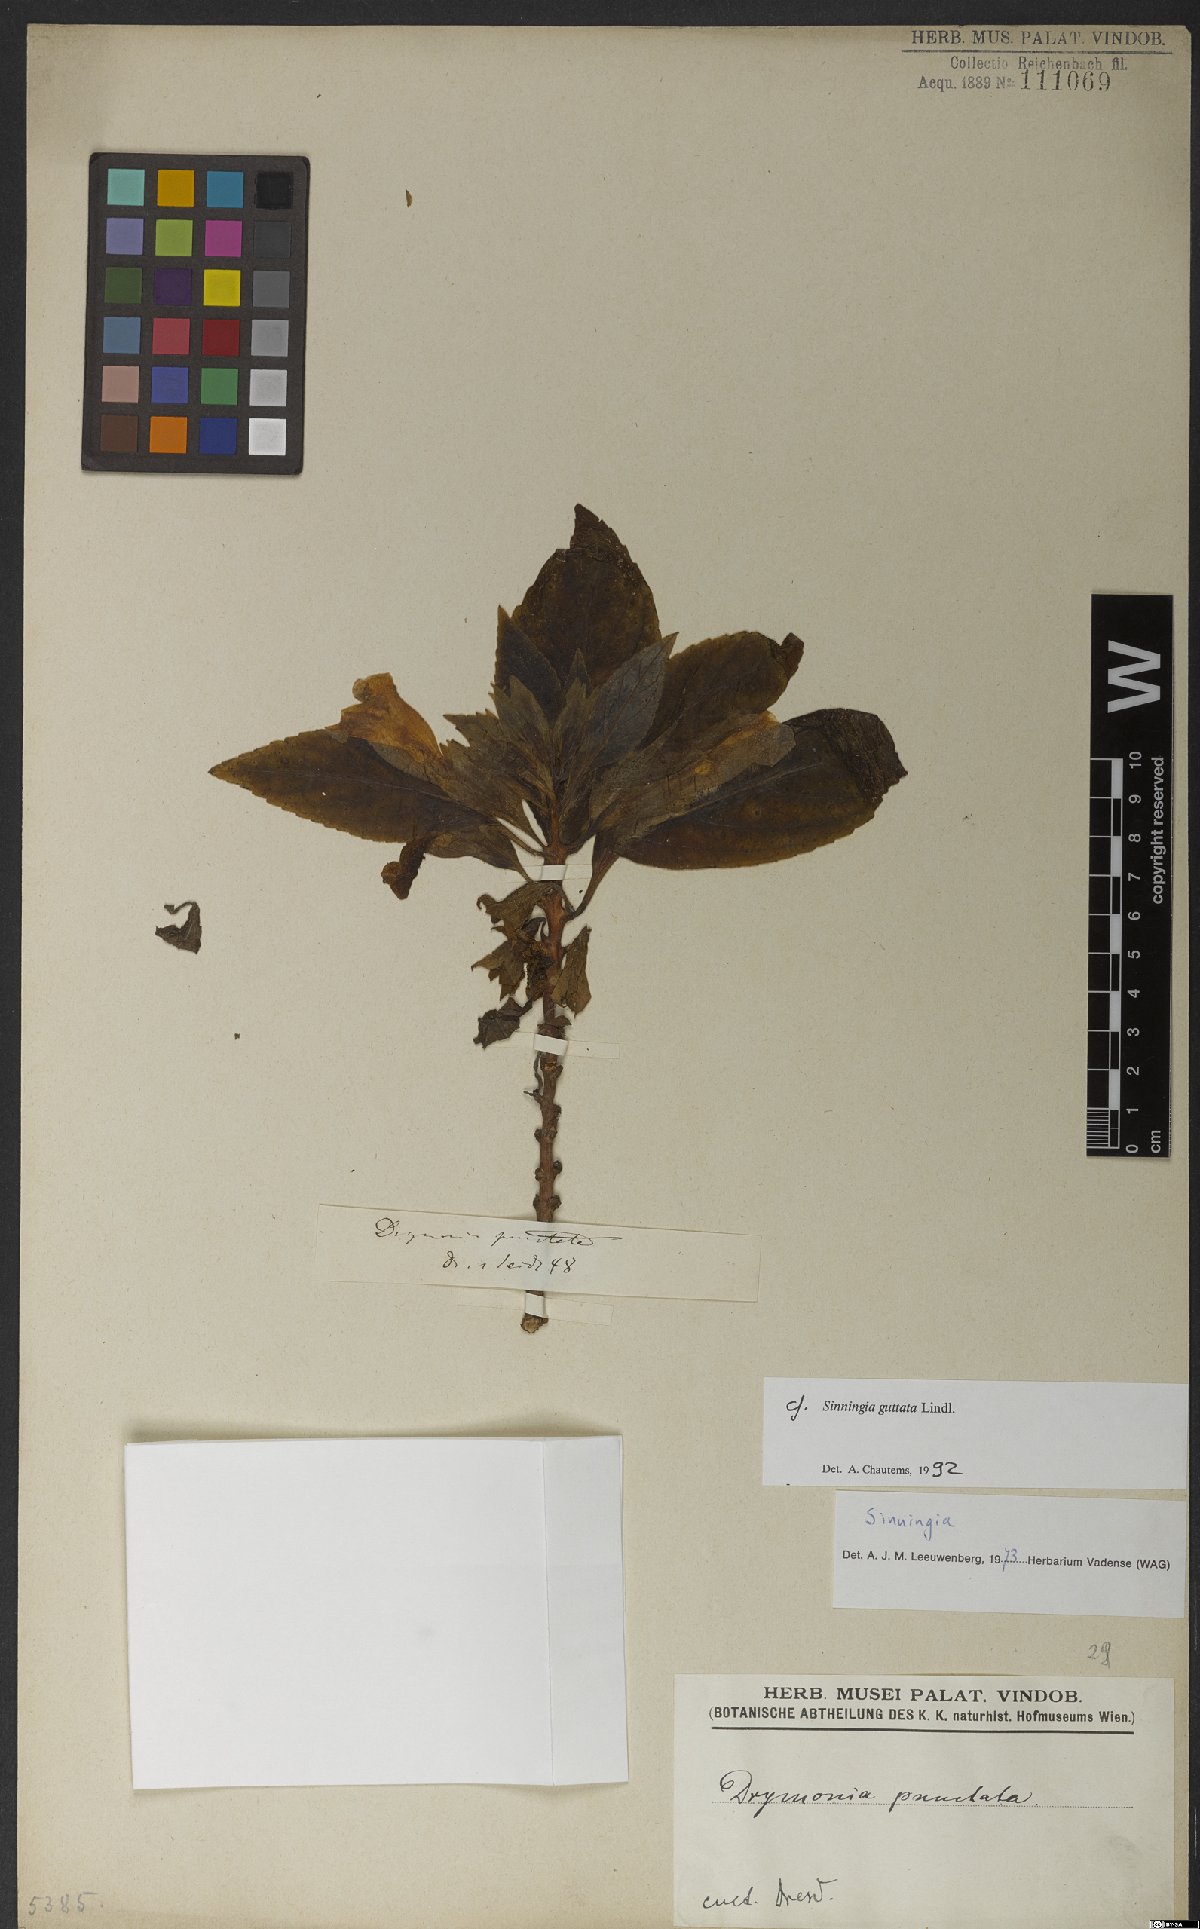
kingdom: Plantae
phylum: Tracheophyta
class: Magnoliopsida
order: Lamiales
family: Gesneriaceae
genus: Sinningia
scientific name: Sinningia
